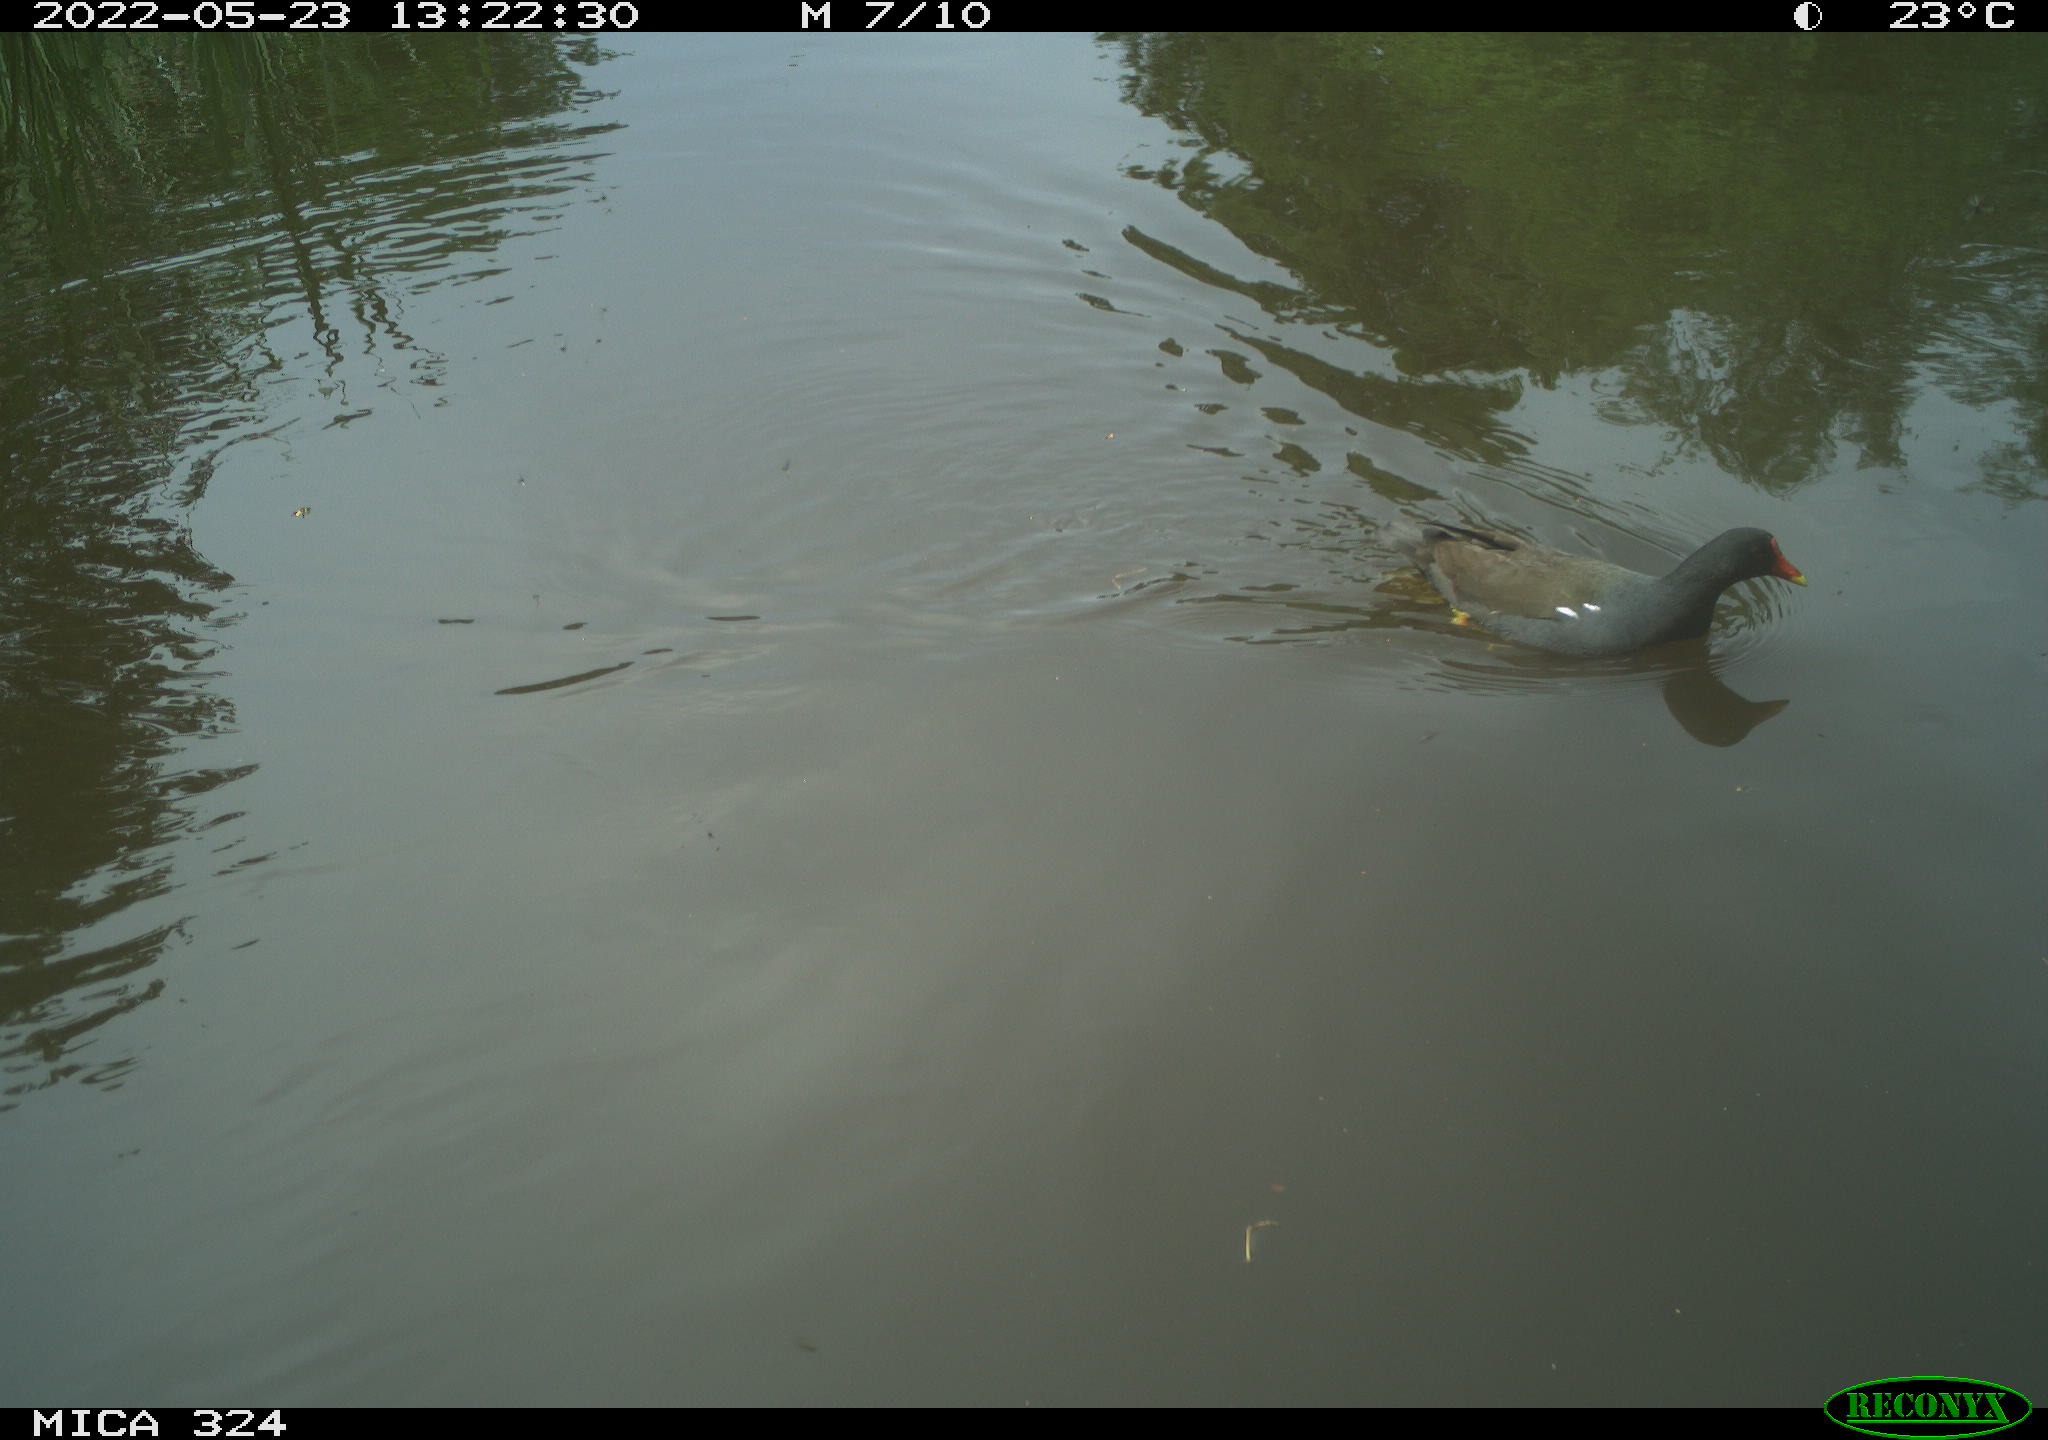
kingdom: Animalia
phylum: Chordata
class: Aves
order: Gruiformes
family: Rallidae
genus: Gallinula
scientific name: Gallinula chloropus
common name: Common moorhen
